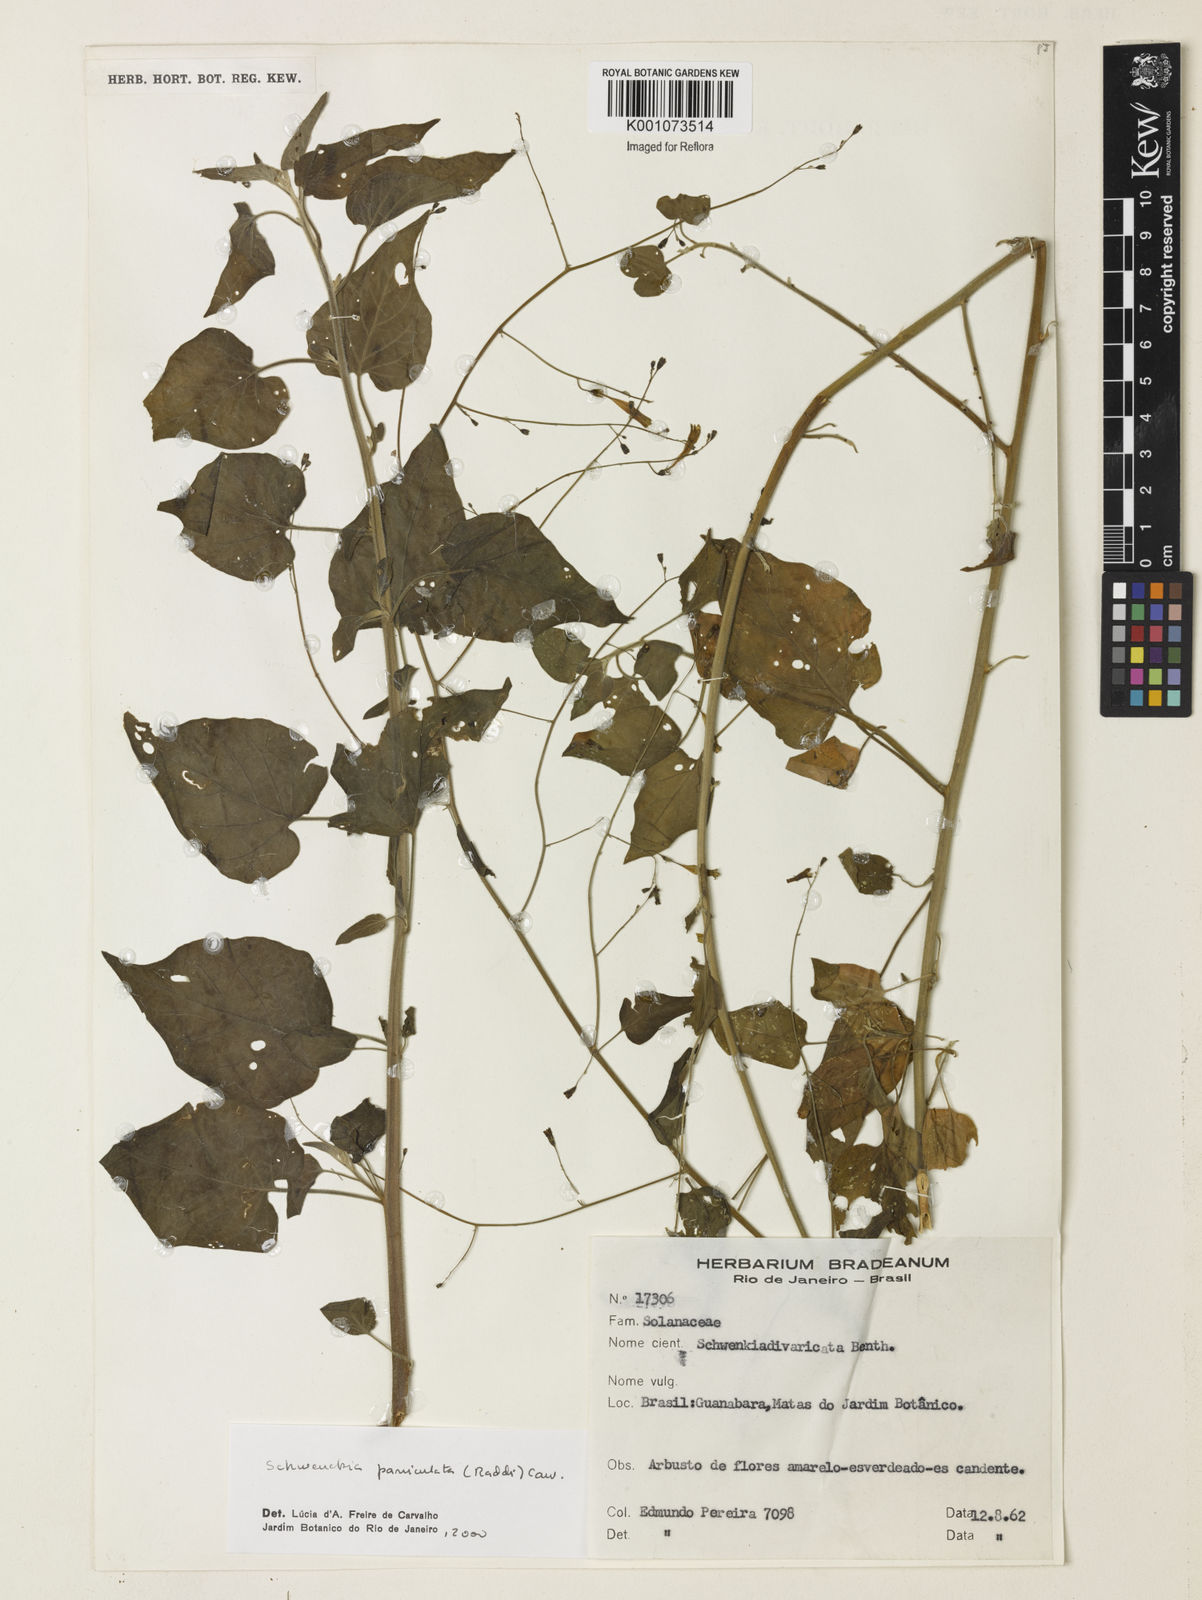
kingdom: Plantae
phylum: Tracheophyta
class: Magnoliopsida
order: Solanales
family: Solanaceae
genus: Schwenckia
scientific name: Schwenckia paniculata
